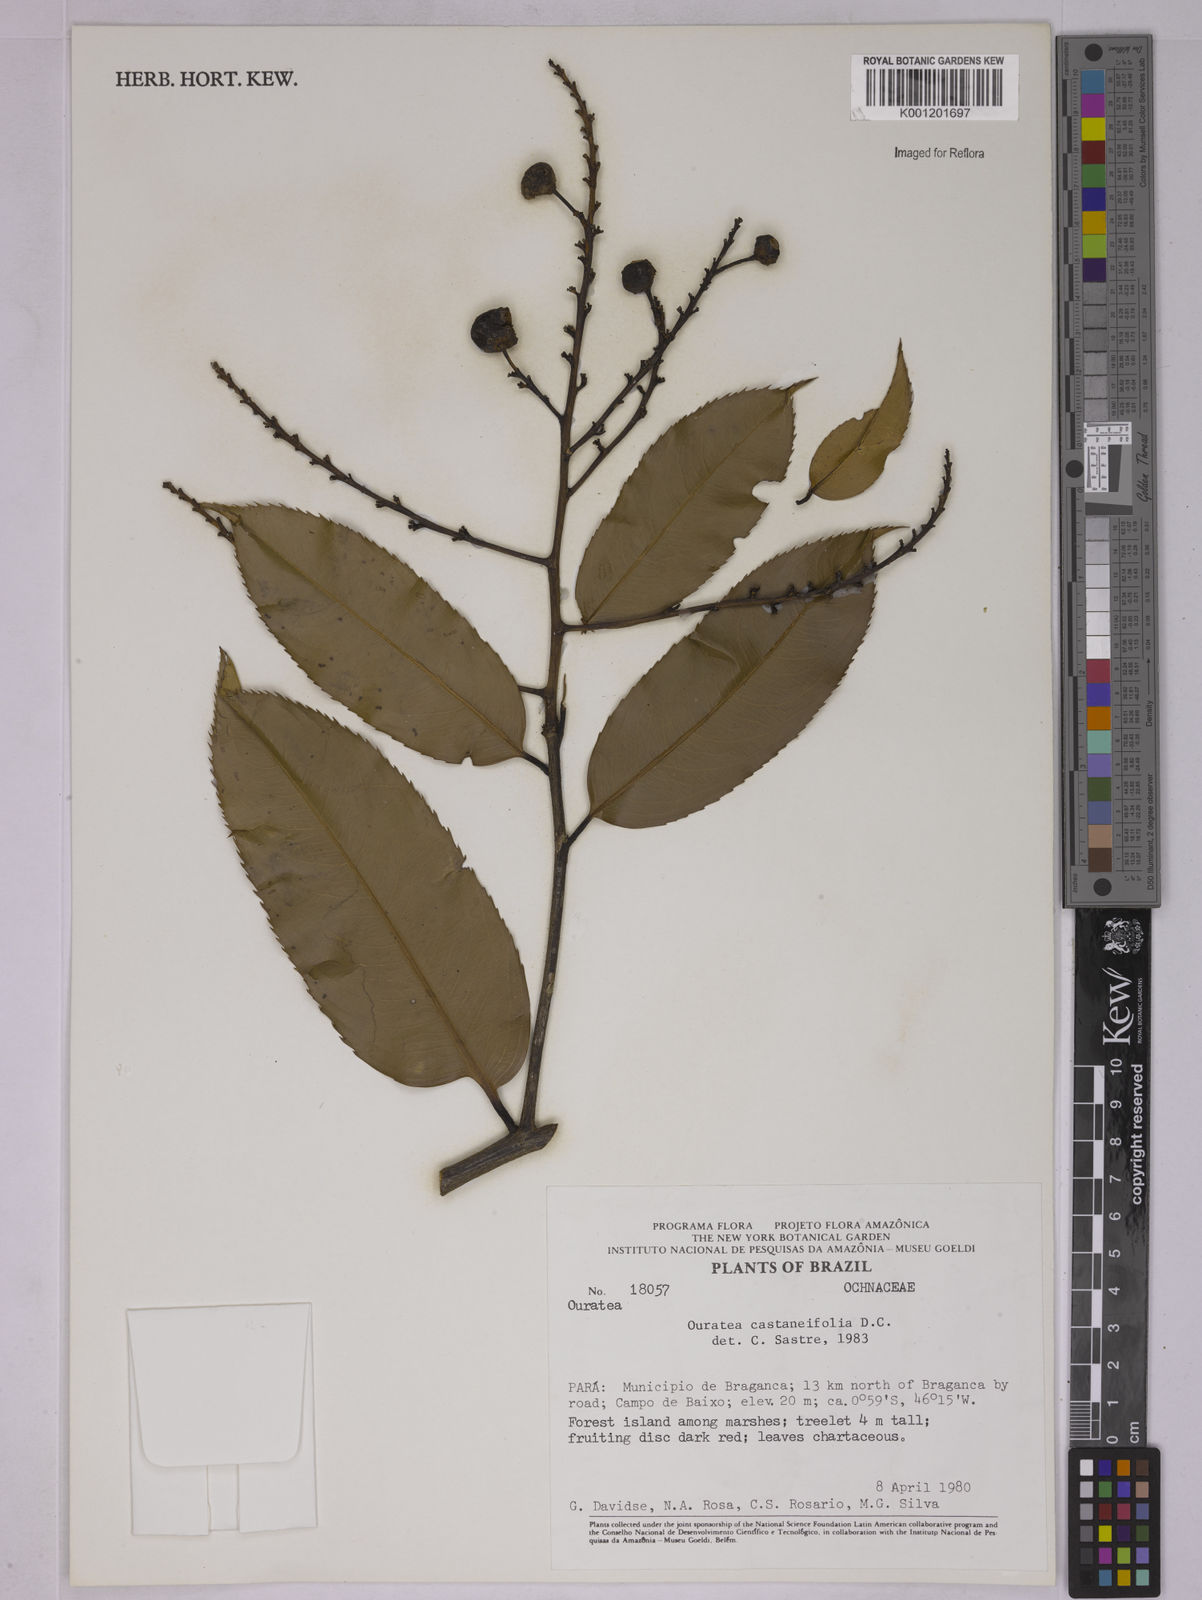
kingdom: Plantae
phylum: Tracheophyta
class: Magnoliopsida
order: Malpighiales
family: Ochnaceae
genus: Ouratea
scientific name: Ouratea castaneifolia
